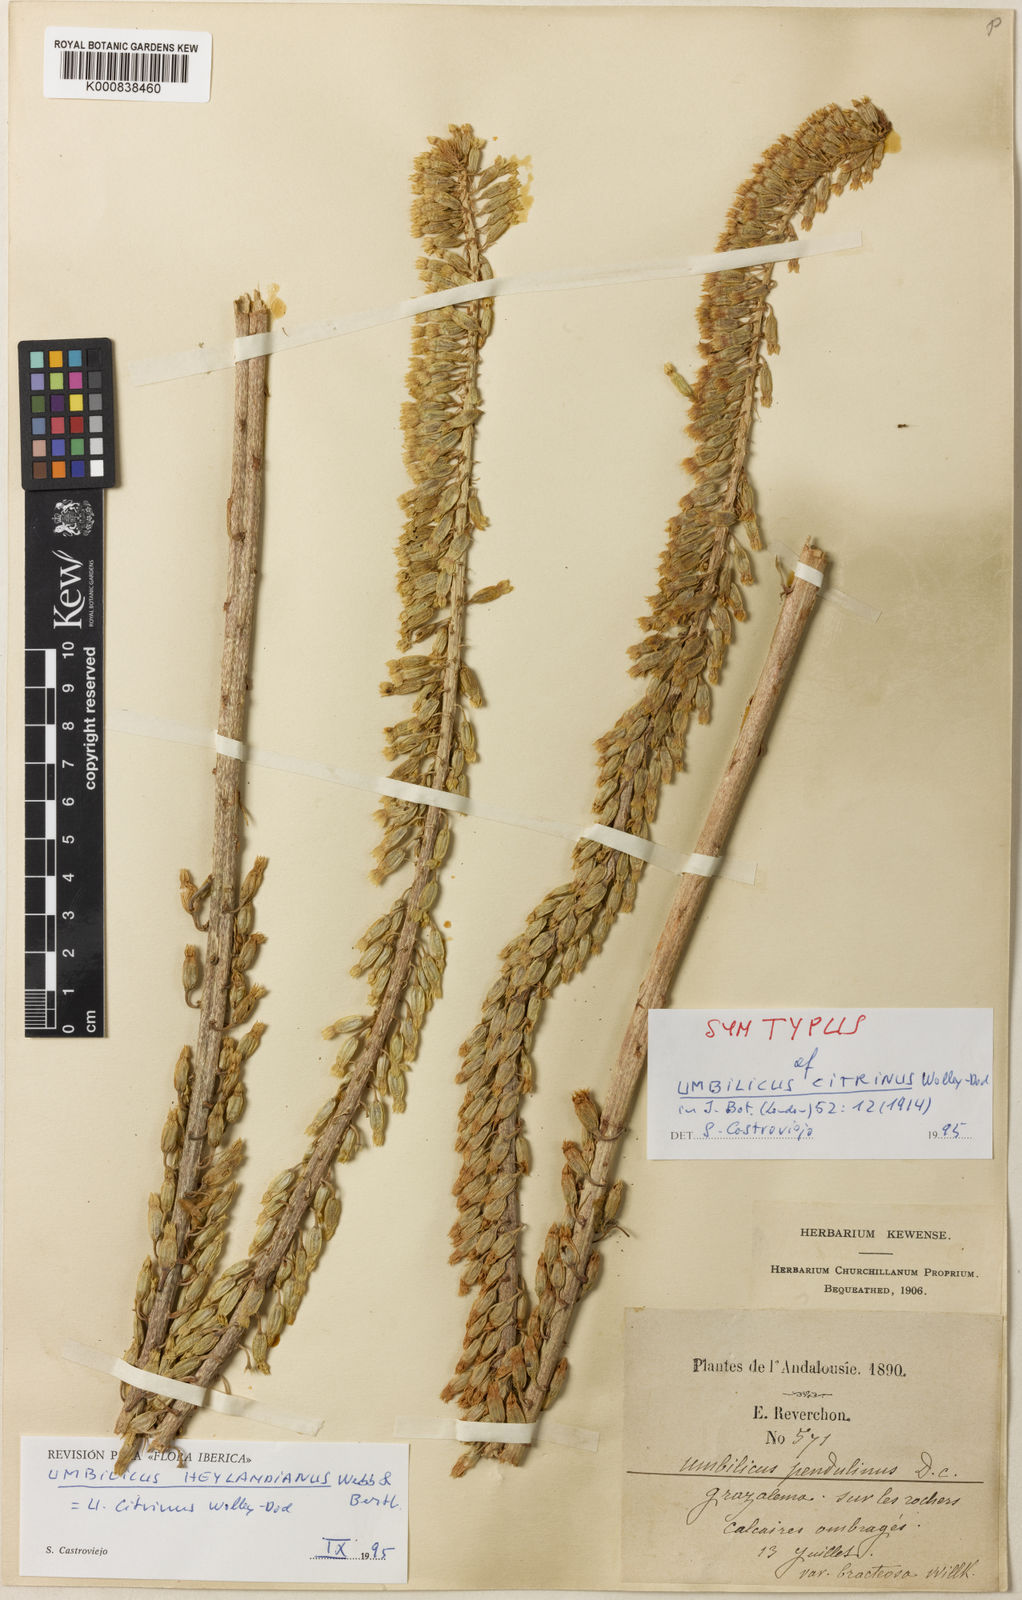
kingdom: Plantae
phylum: Tracheophyta
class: Magnoliopsida
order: Saxifragales
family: Crassulaceae
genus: Umbilicus
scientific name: Umbilicus heylandianus
